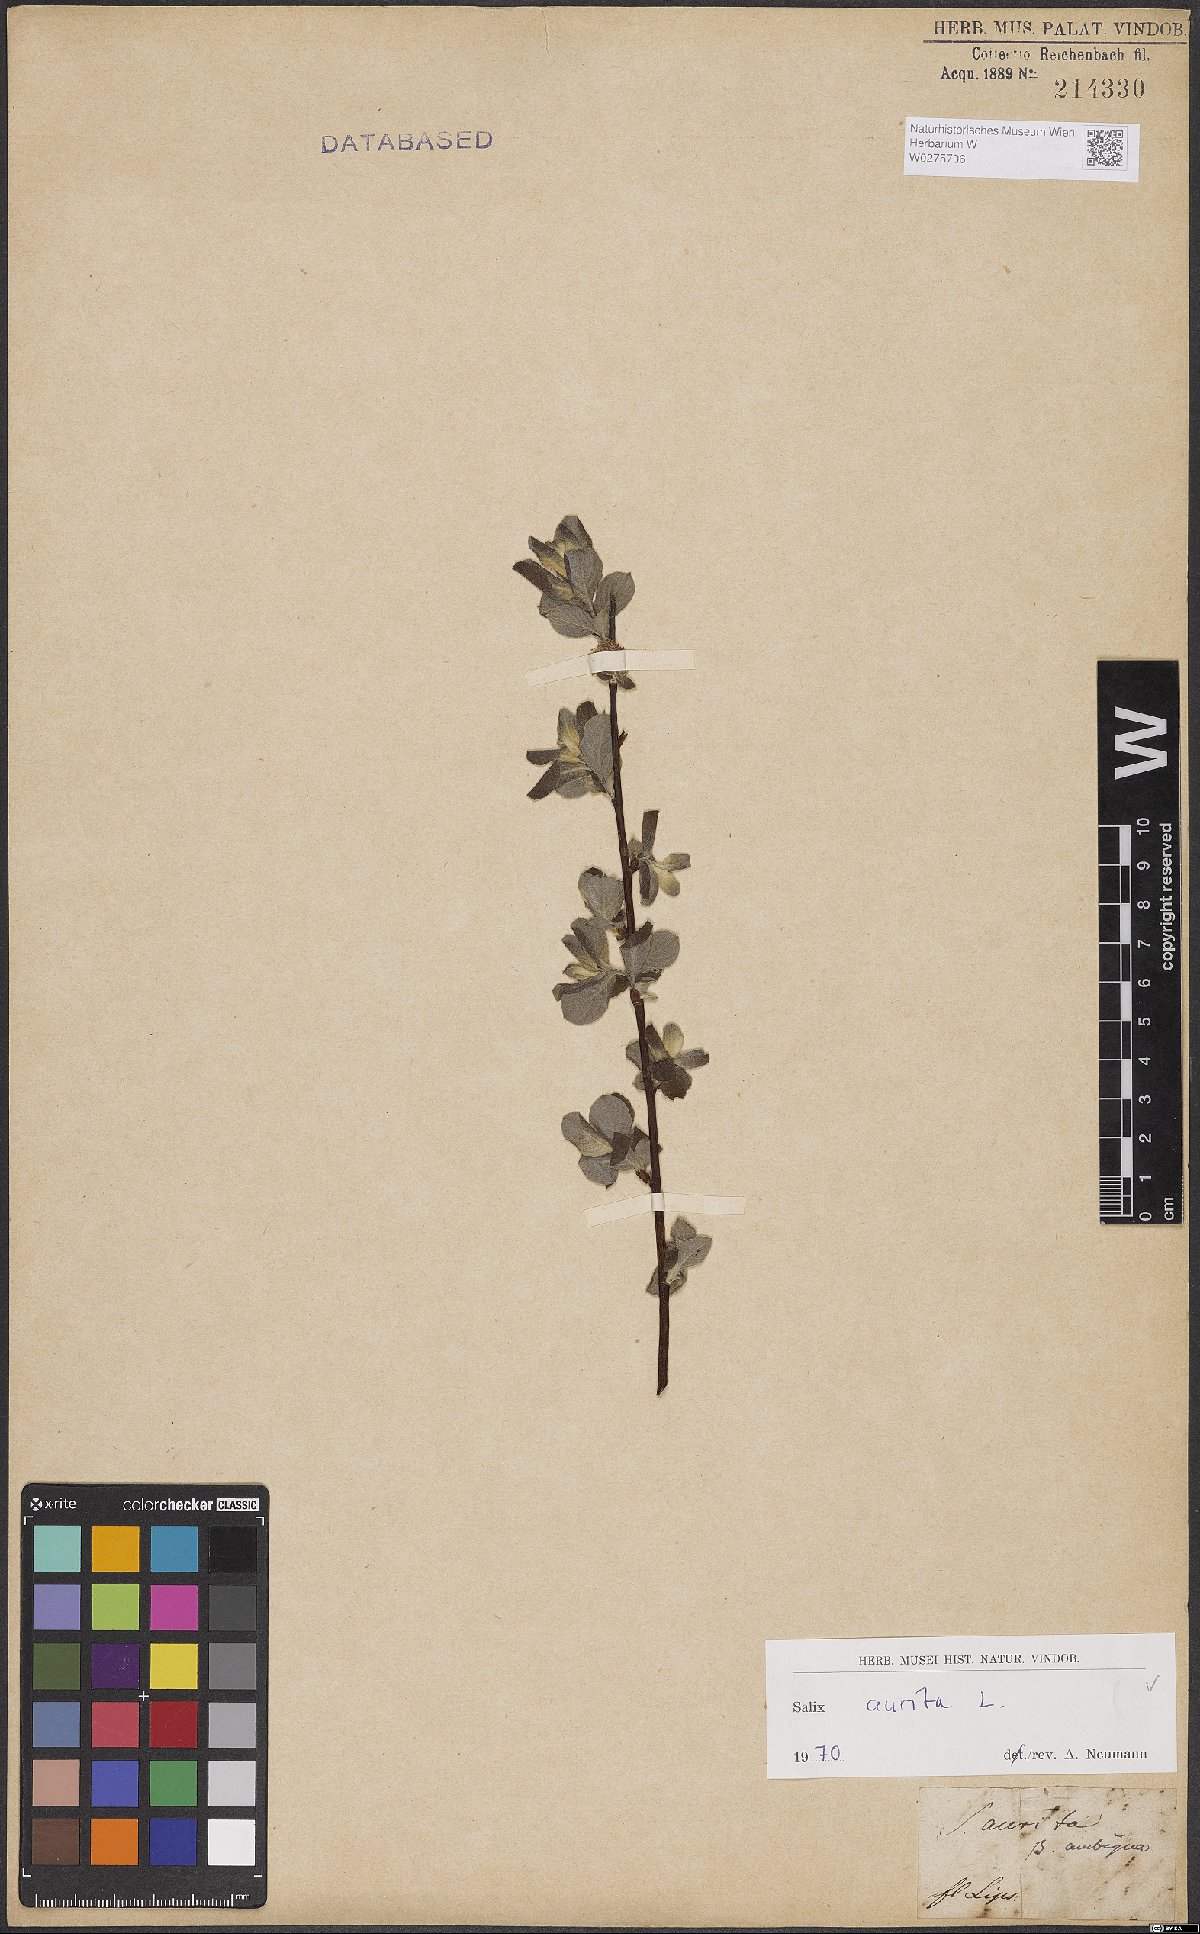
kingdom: Plantae
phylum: Tracheophyta
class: Magnoliopsida
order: Malpighiales
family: Salicaceae
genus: Salix
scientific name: Salix aurita
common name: Eared willow
